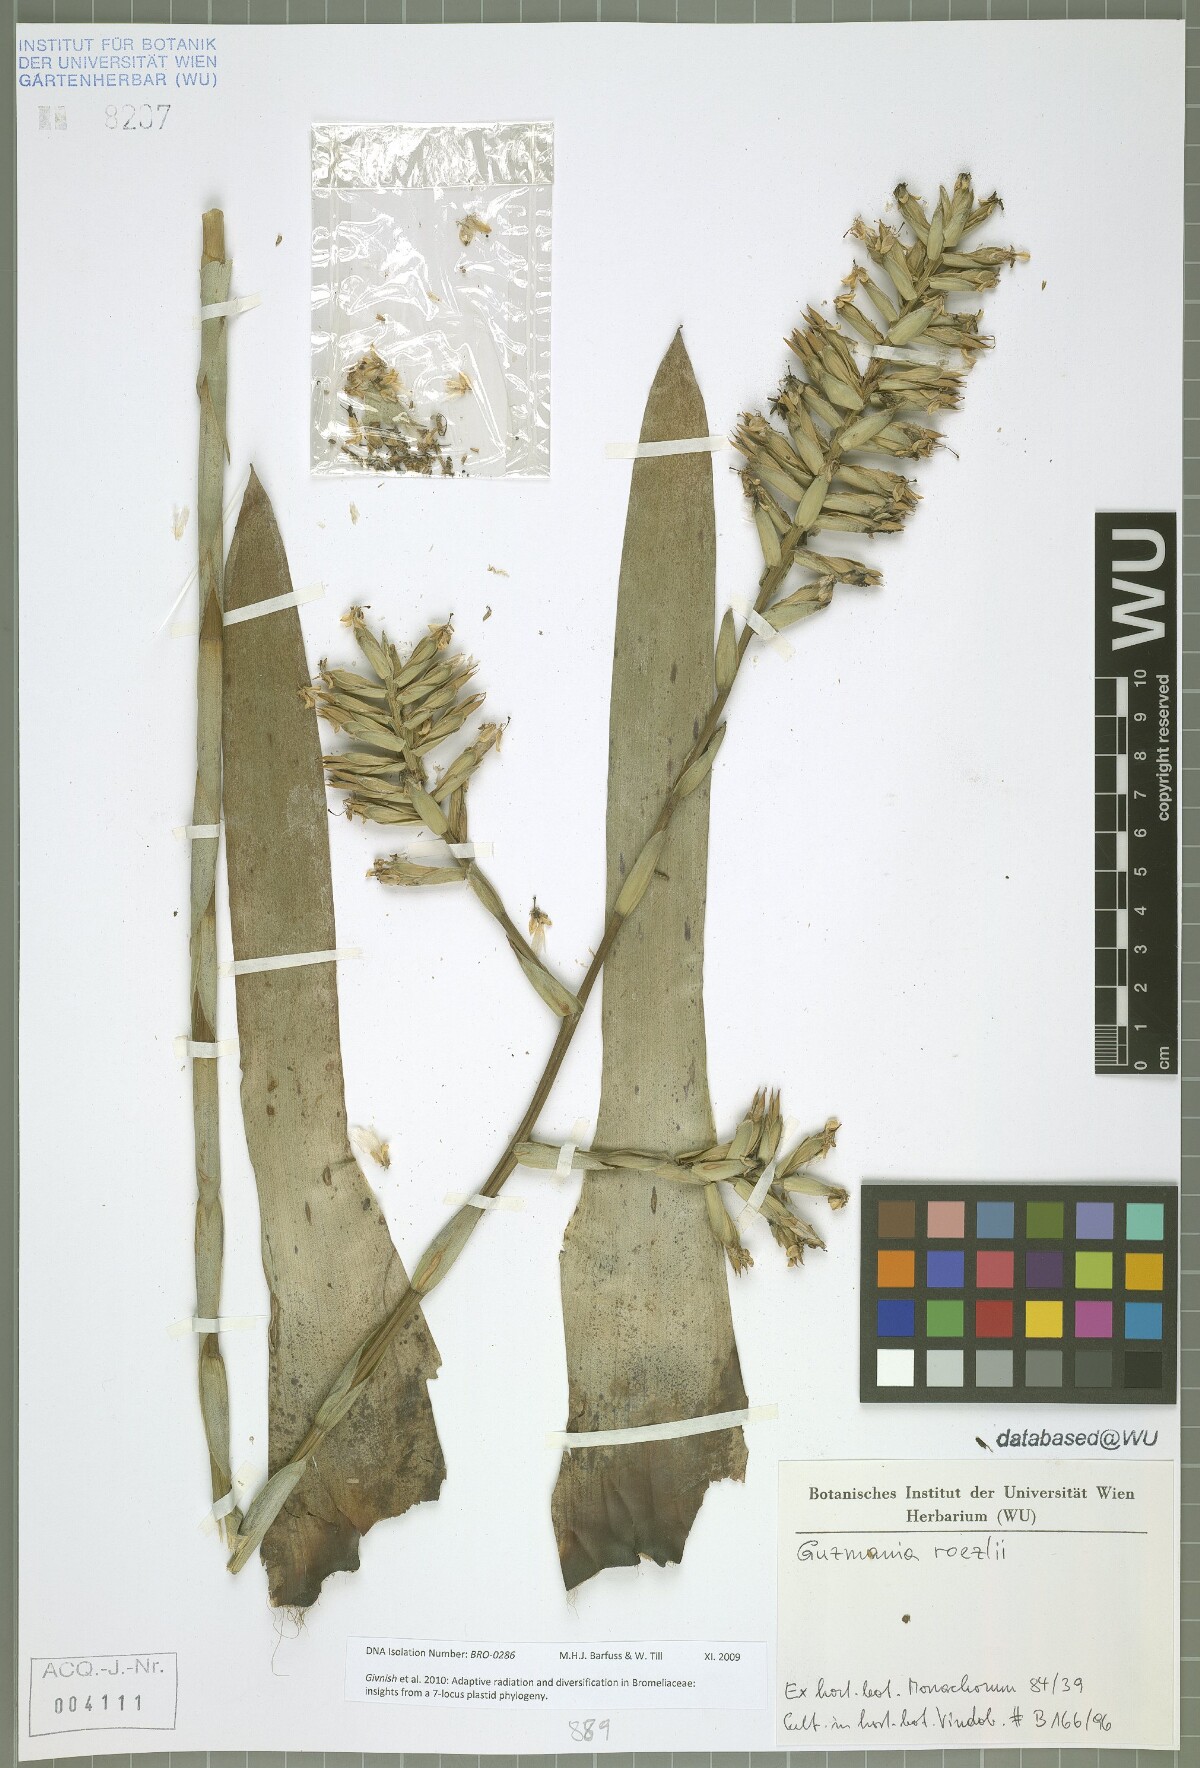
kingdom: Plantae
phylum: Tracheophyta
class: Liliopsida
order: Poales
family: Bromeliaceae
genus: Guzmania
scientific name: Guzmania roezlii
